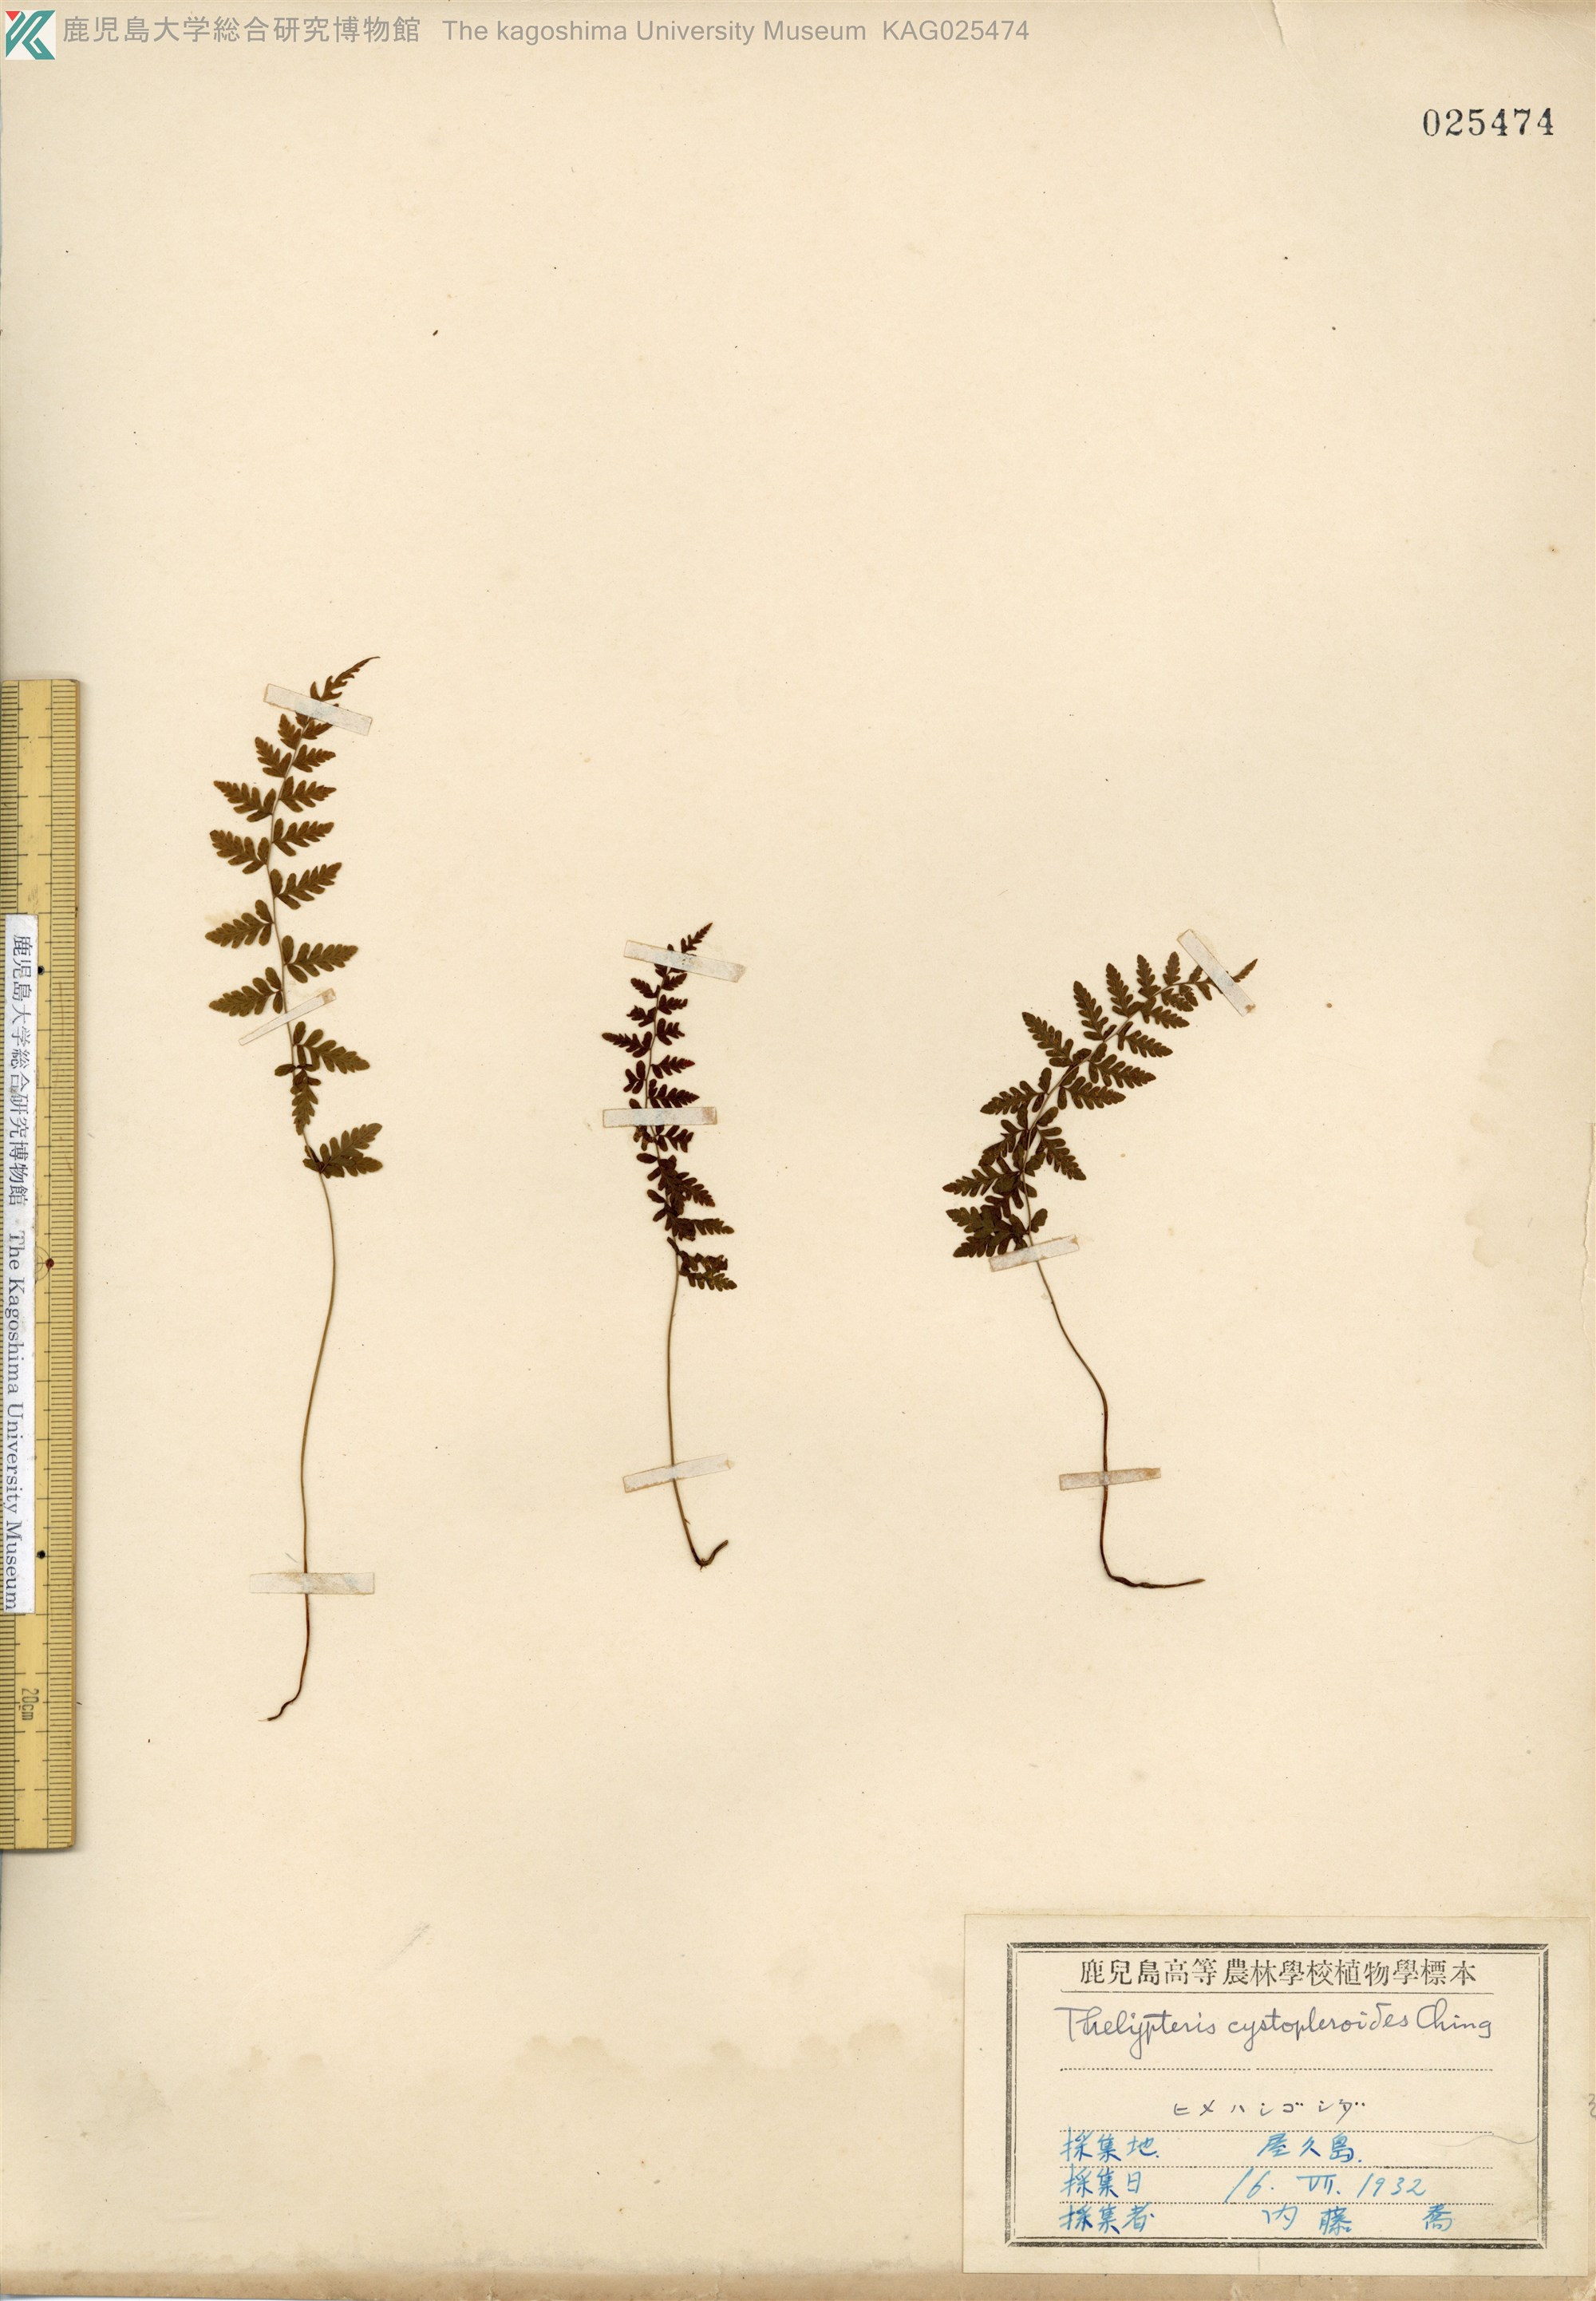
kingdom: Plantae
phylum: Tracheophyta
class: Polypodiopsida
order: Polypodiales
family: Thelypteridaceae
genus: Amauropelta
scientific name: Amauropelta cystopteroides
